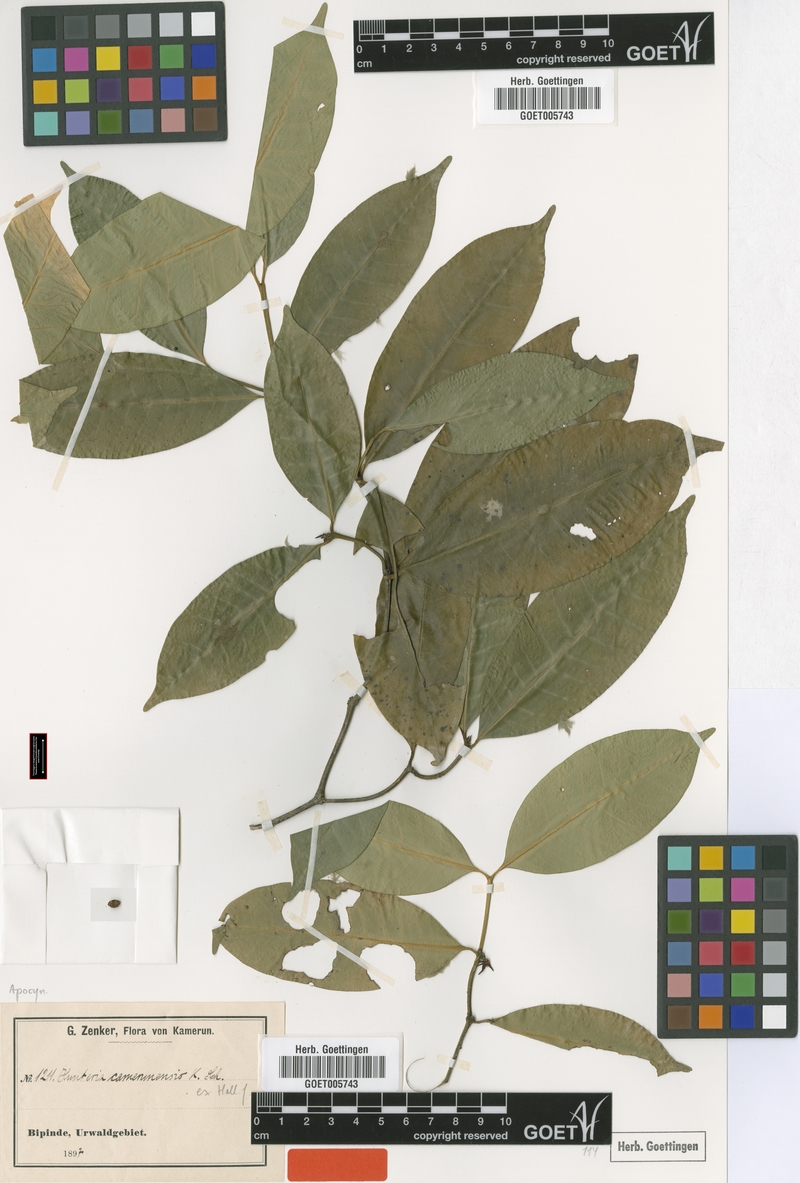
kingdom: Plantae
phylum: Tracheophyta
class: Magnoliopsida
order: Gentianales
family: Apocynaceae
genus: Hunteria
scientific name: Hunteria camerunensis
